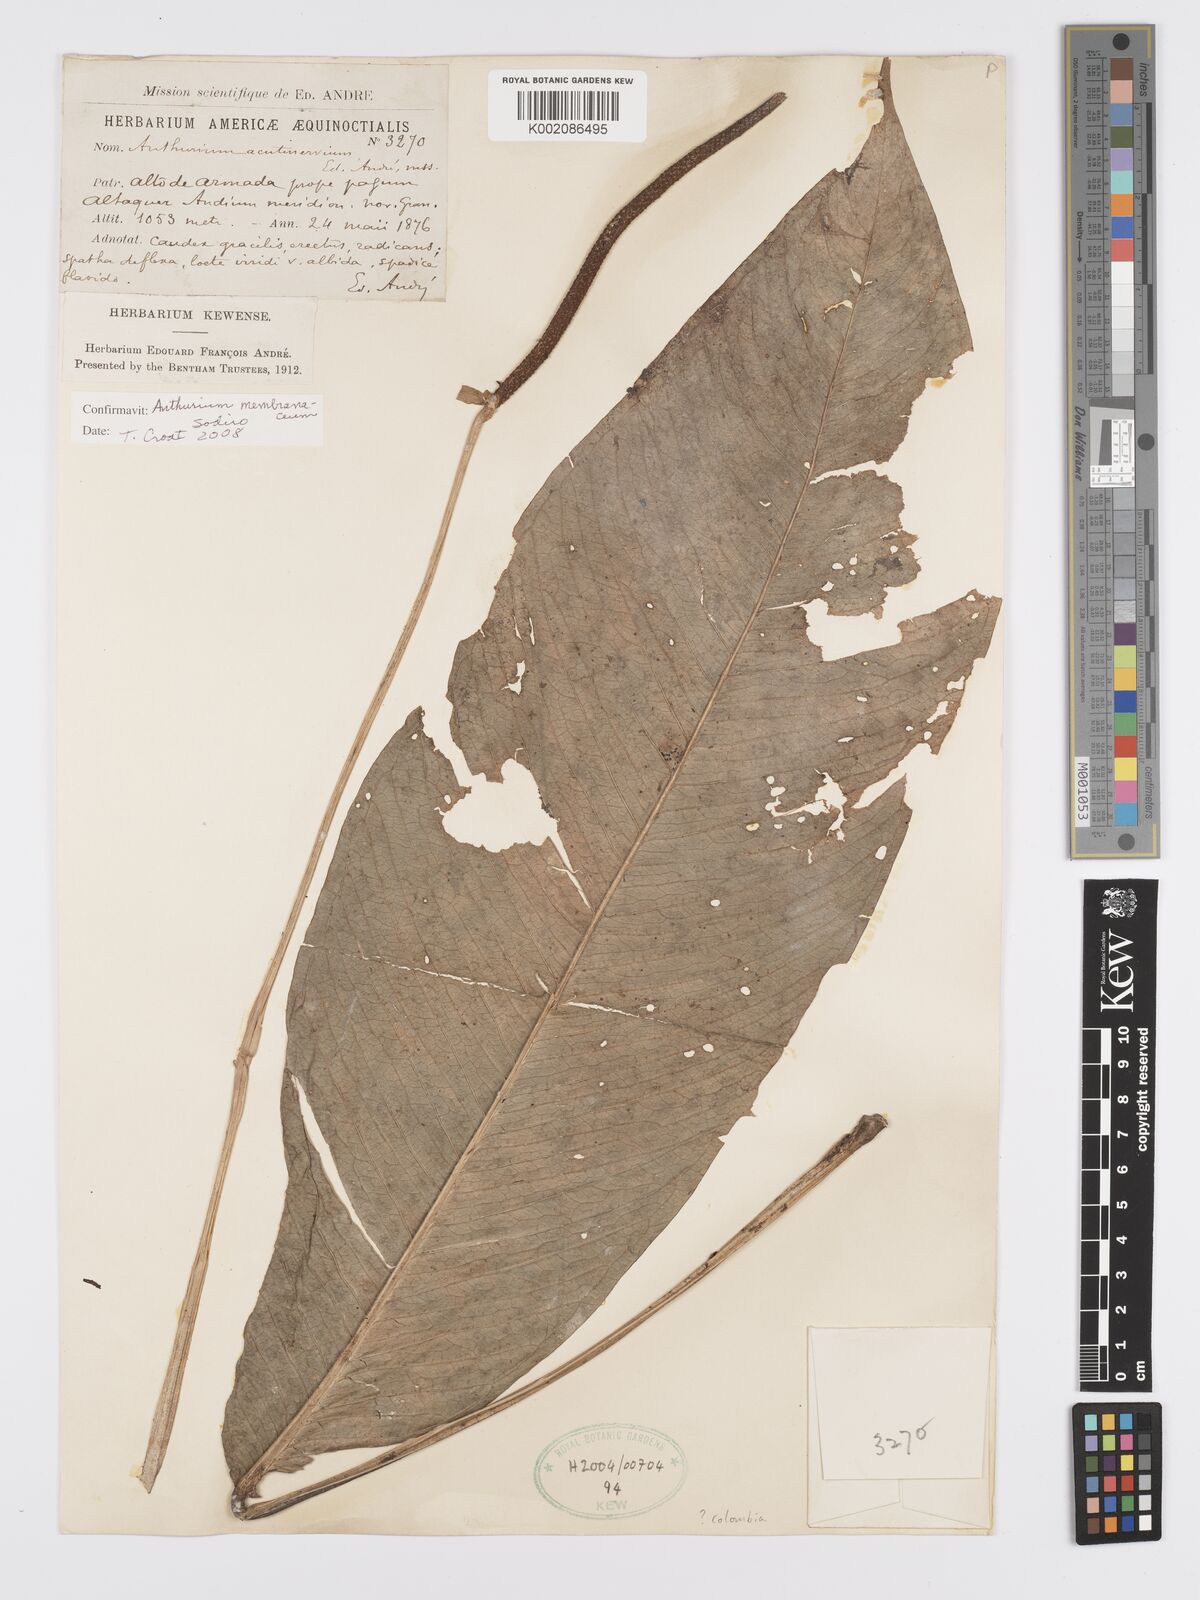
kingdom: Plantae
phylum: Tracheophyta
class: Liliopsida
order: Alismatales
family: Araceae
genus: Anthurium
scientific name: Anthurium membranaceum
